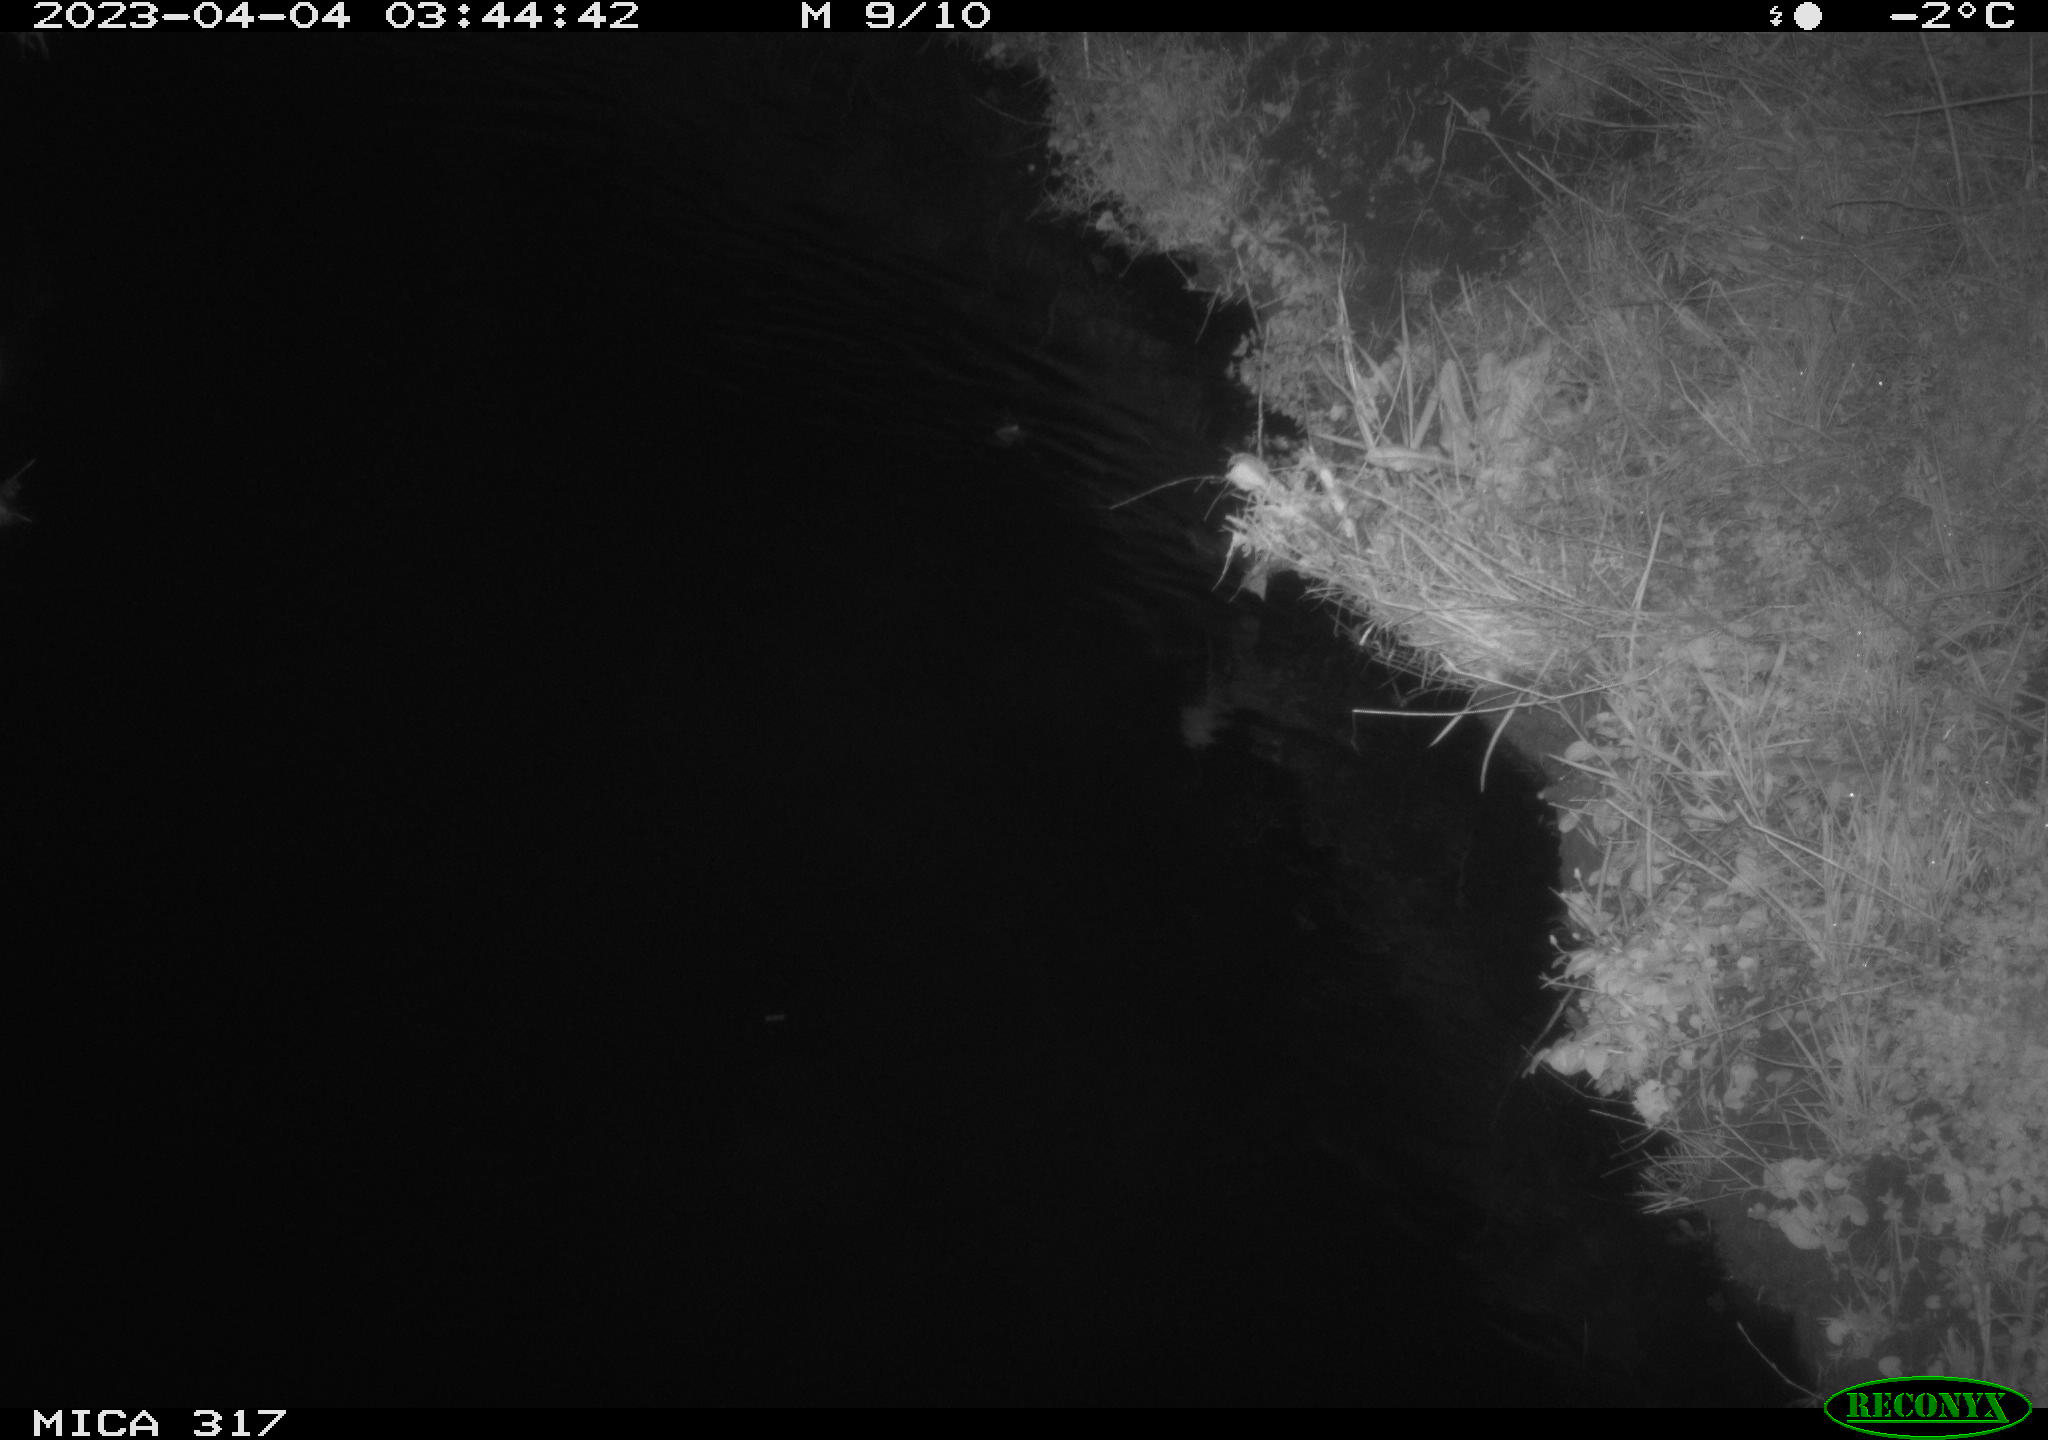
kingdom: Animalia
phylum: Chordata
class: Aves
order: Anseriformes
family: Anatidae
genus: Anas
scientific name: Anas
